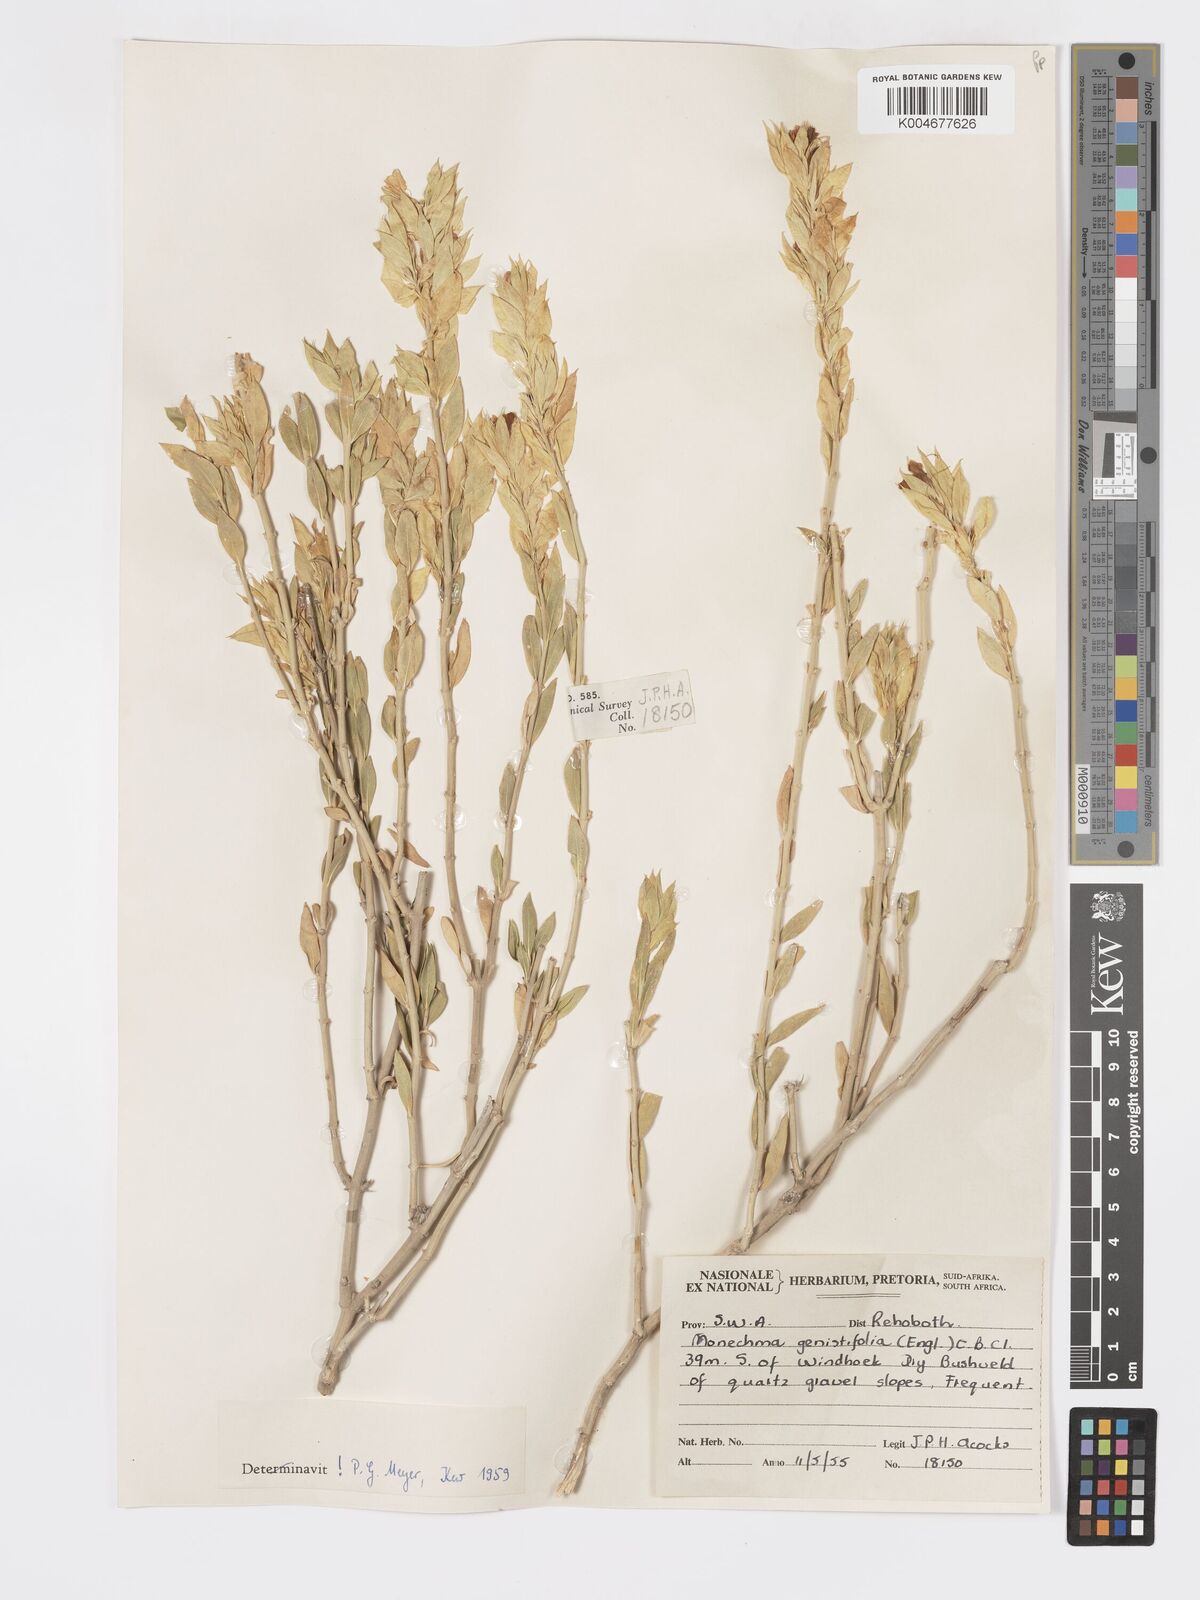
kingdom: Plantae
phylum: Tracheophyta
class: Magnoliopsida
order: Lamiales
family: Acanthaceae
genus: Pogonospermum
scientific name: Pogonospermum
